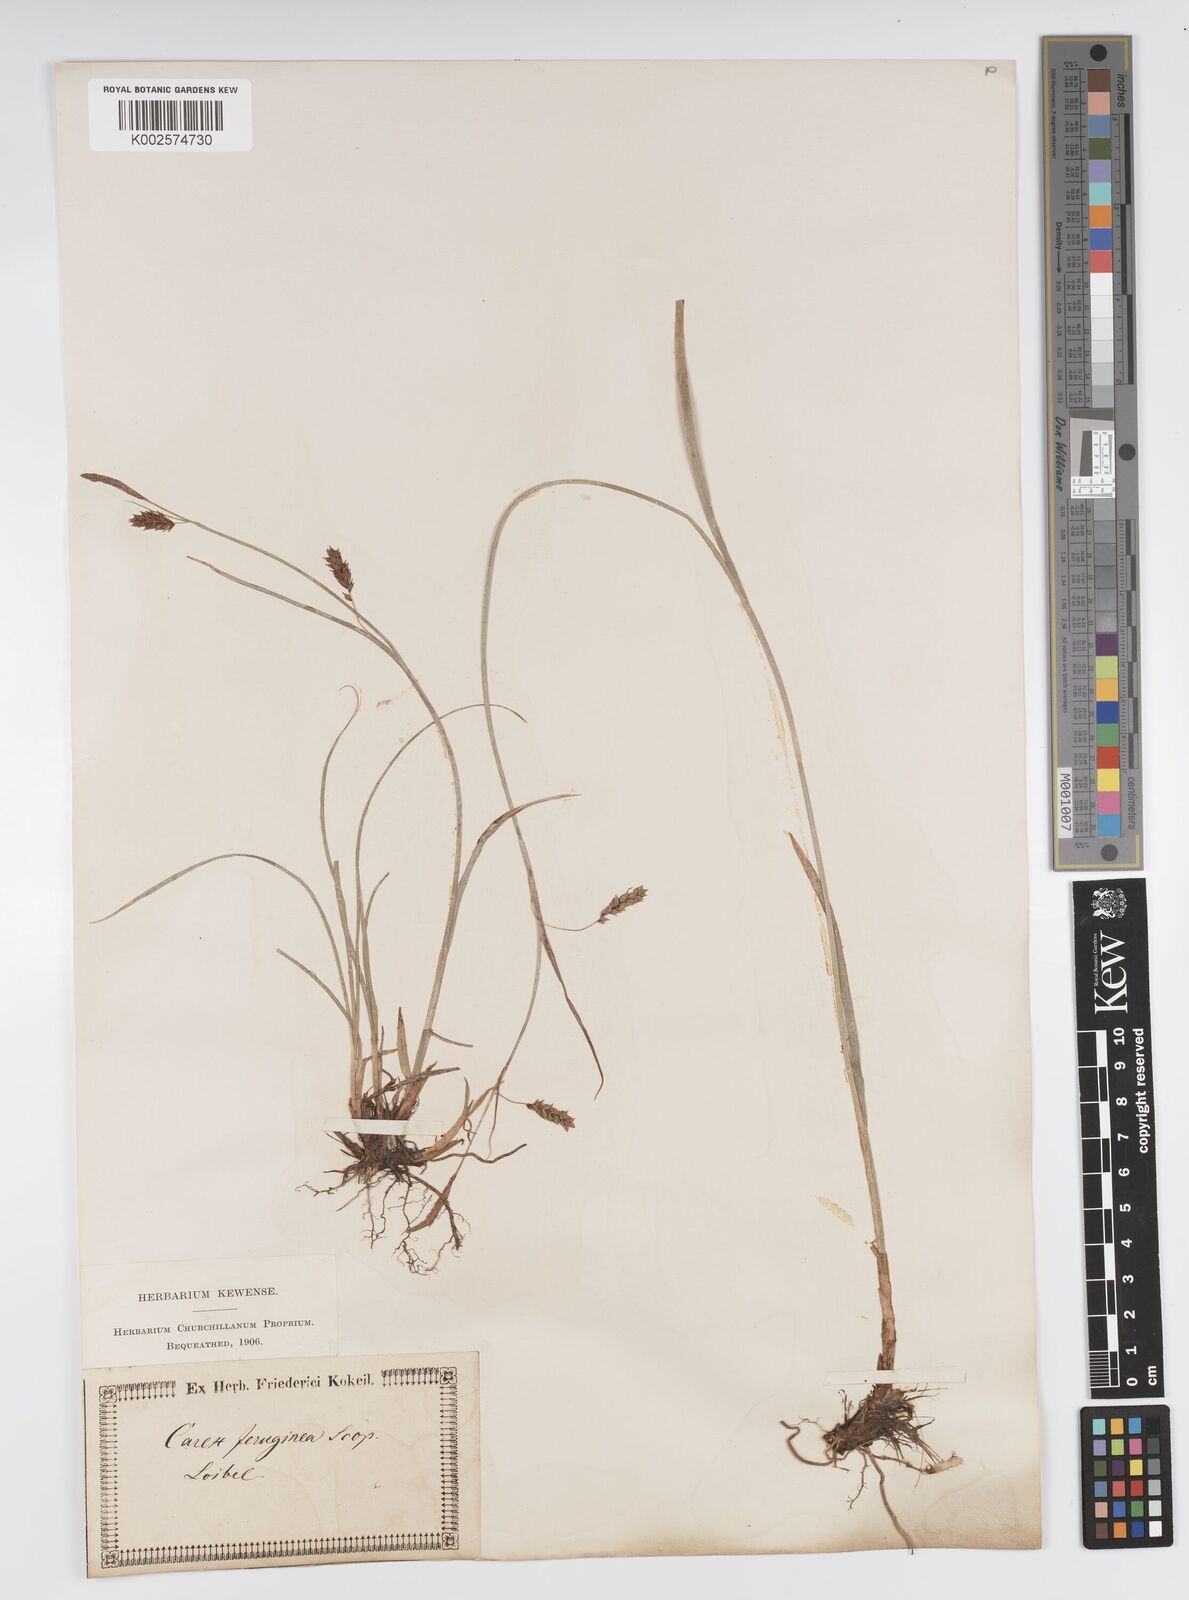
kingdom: Plantae
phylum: Tracheophyta
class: Liliopsida
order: Poales
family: Cyperaceae
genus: Carex
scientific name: Carex ferruginea
